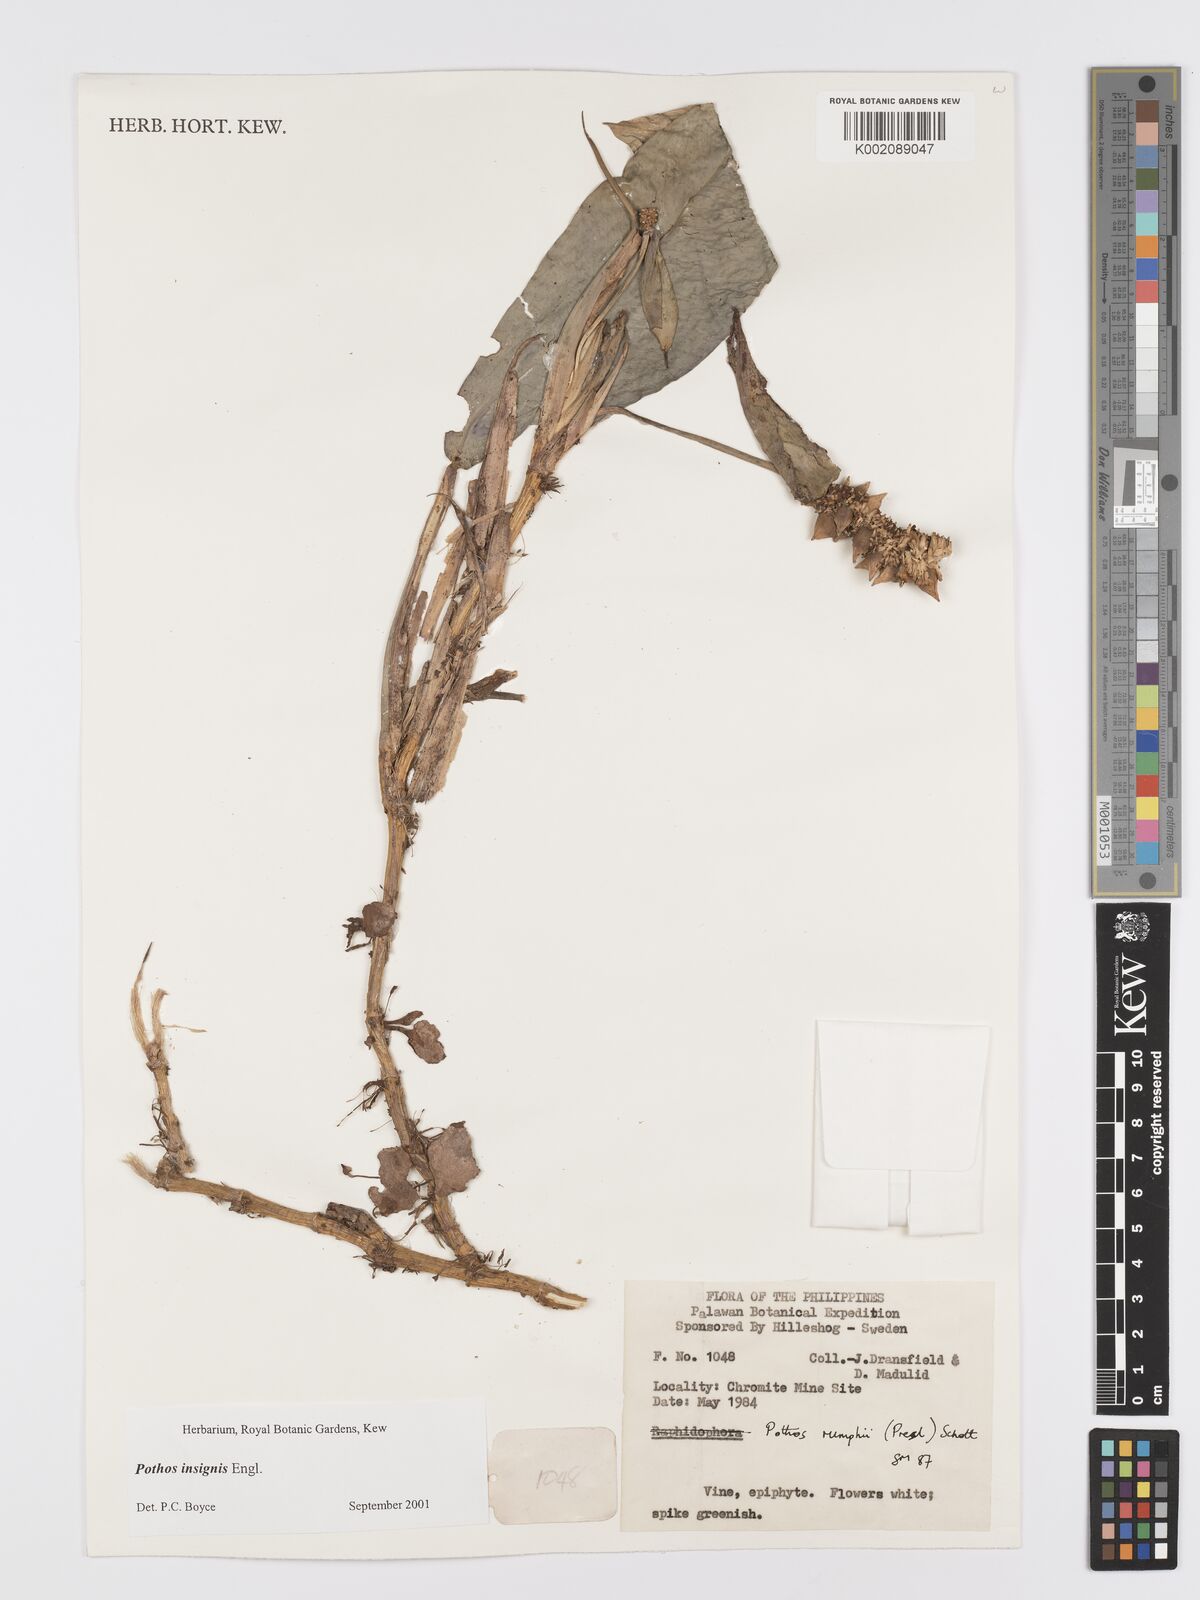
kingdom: Plantae
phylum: Tracheophyta
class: Liliopsida
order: Alismatales
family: Araceae
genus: Pothos
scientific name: Pothos insignis
